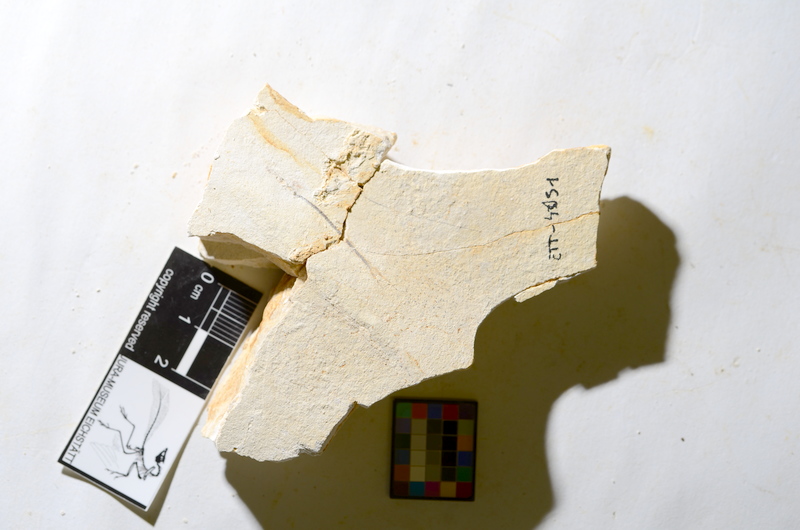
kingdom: Animalia
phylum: Chordata
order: Salmoniformes
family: Orthogonikleithridae
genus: Orthogonikleithrus
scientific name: Orthogonikleithrus hoelli
